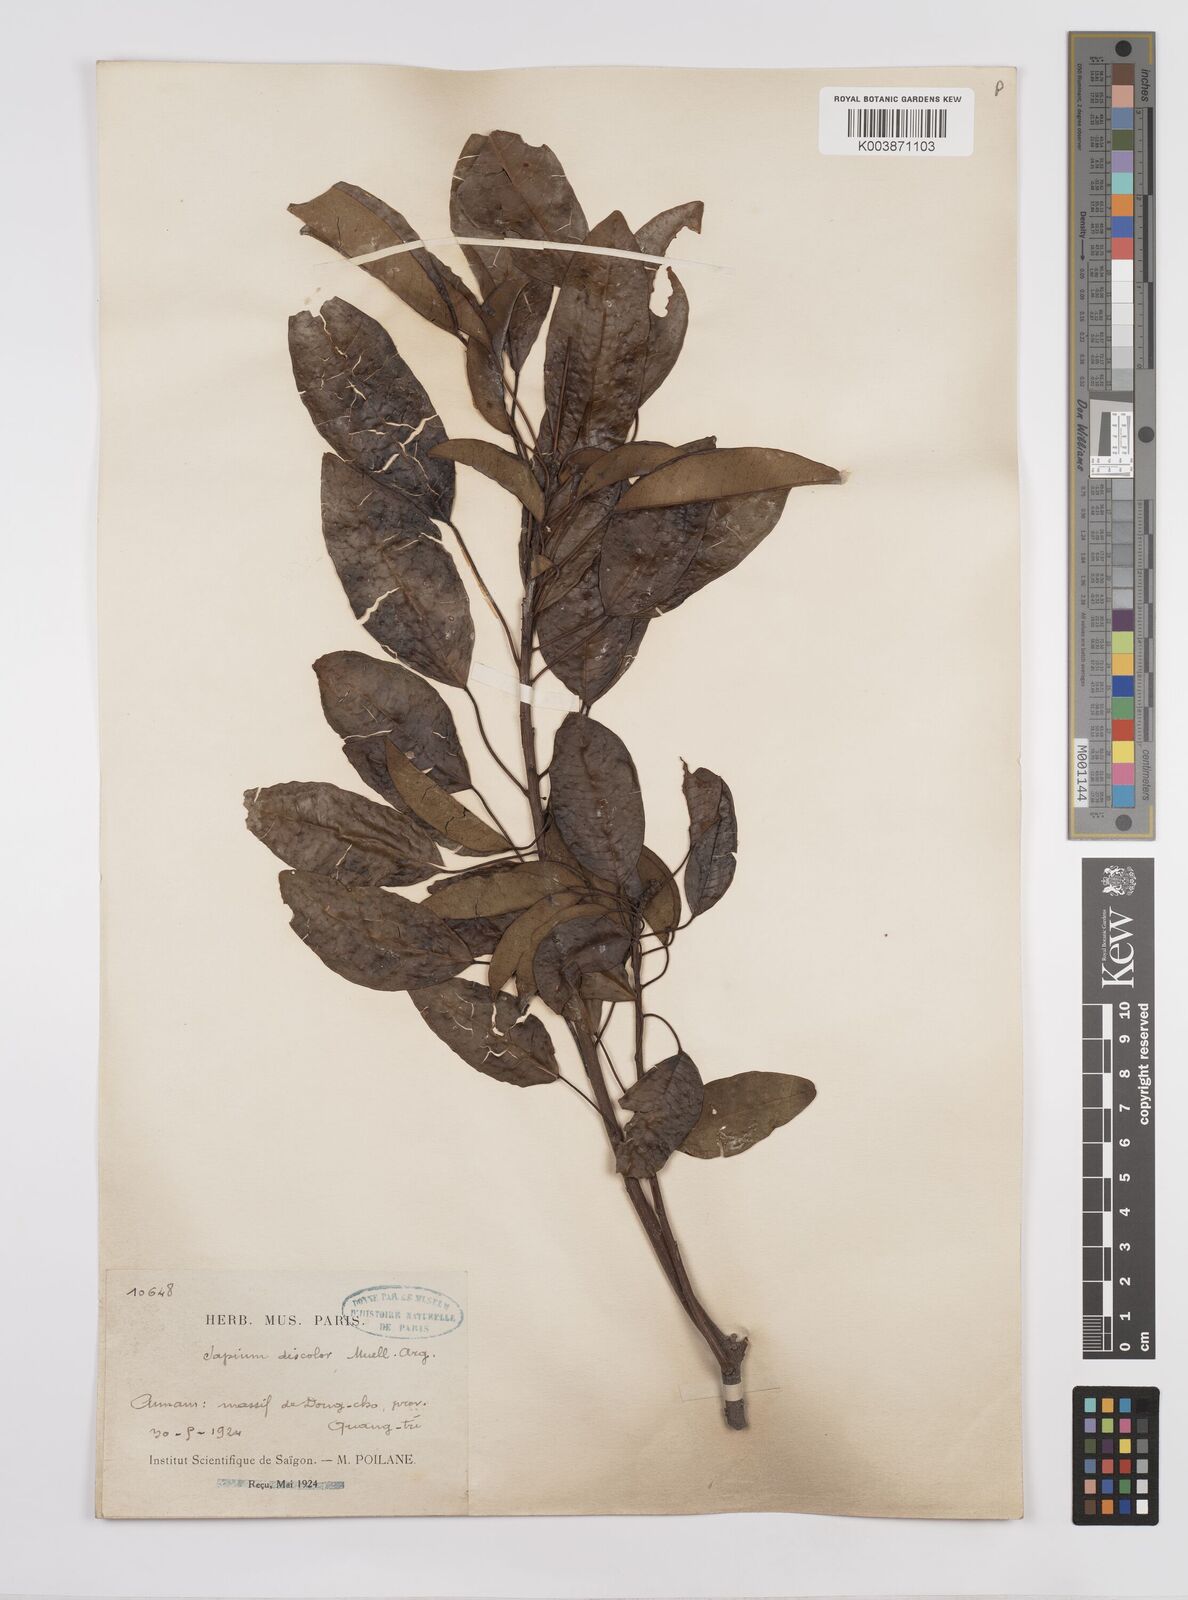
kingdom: Plantae
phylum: Tracheophyta
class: Magnoliopsida
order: Malpighiales
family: Euphorbiaceae
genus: Triadica
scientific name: Triadica cochinchinensis
